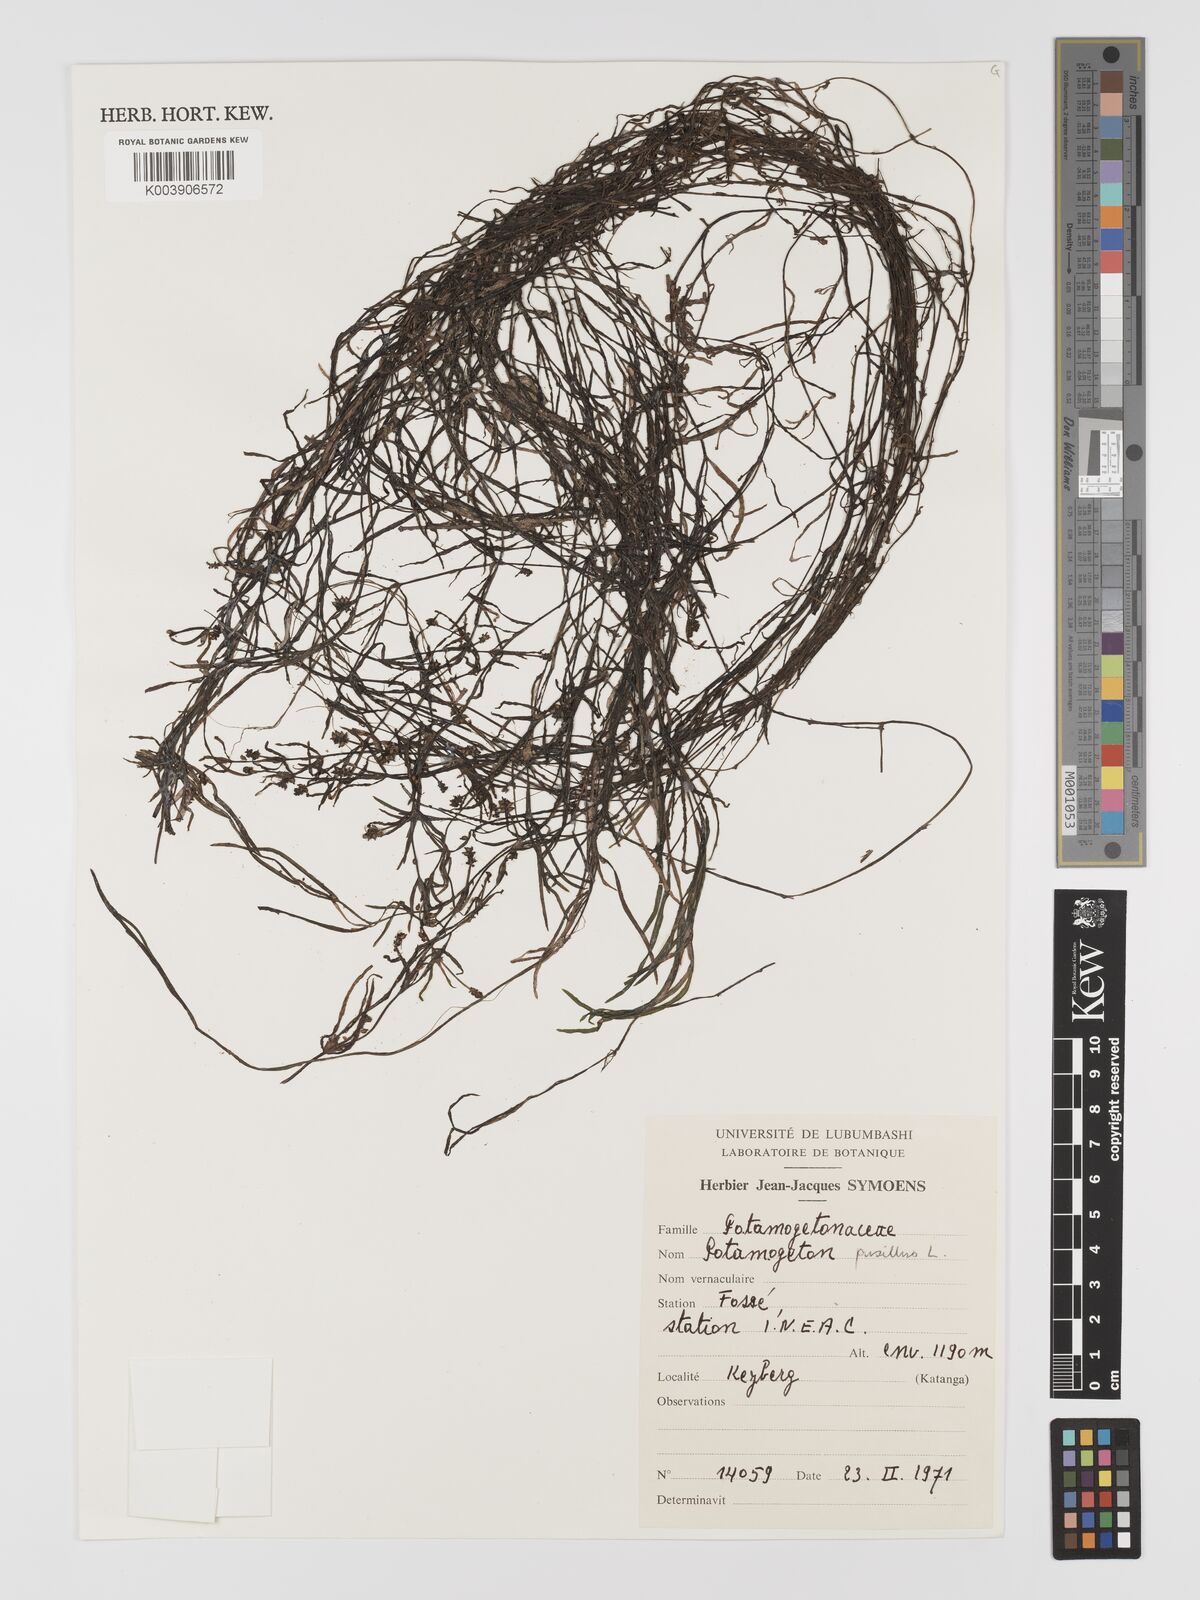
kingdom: Plantae
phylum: Tracheophyta
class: Liliopsida
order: Alismatales
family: Potamogetonaceae
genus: Potamogeton
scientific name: Potamogeton pusillus
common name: Lesser pondweed
